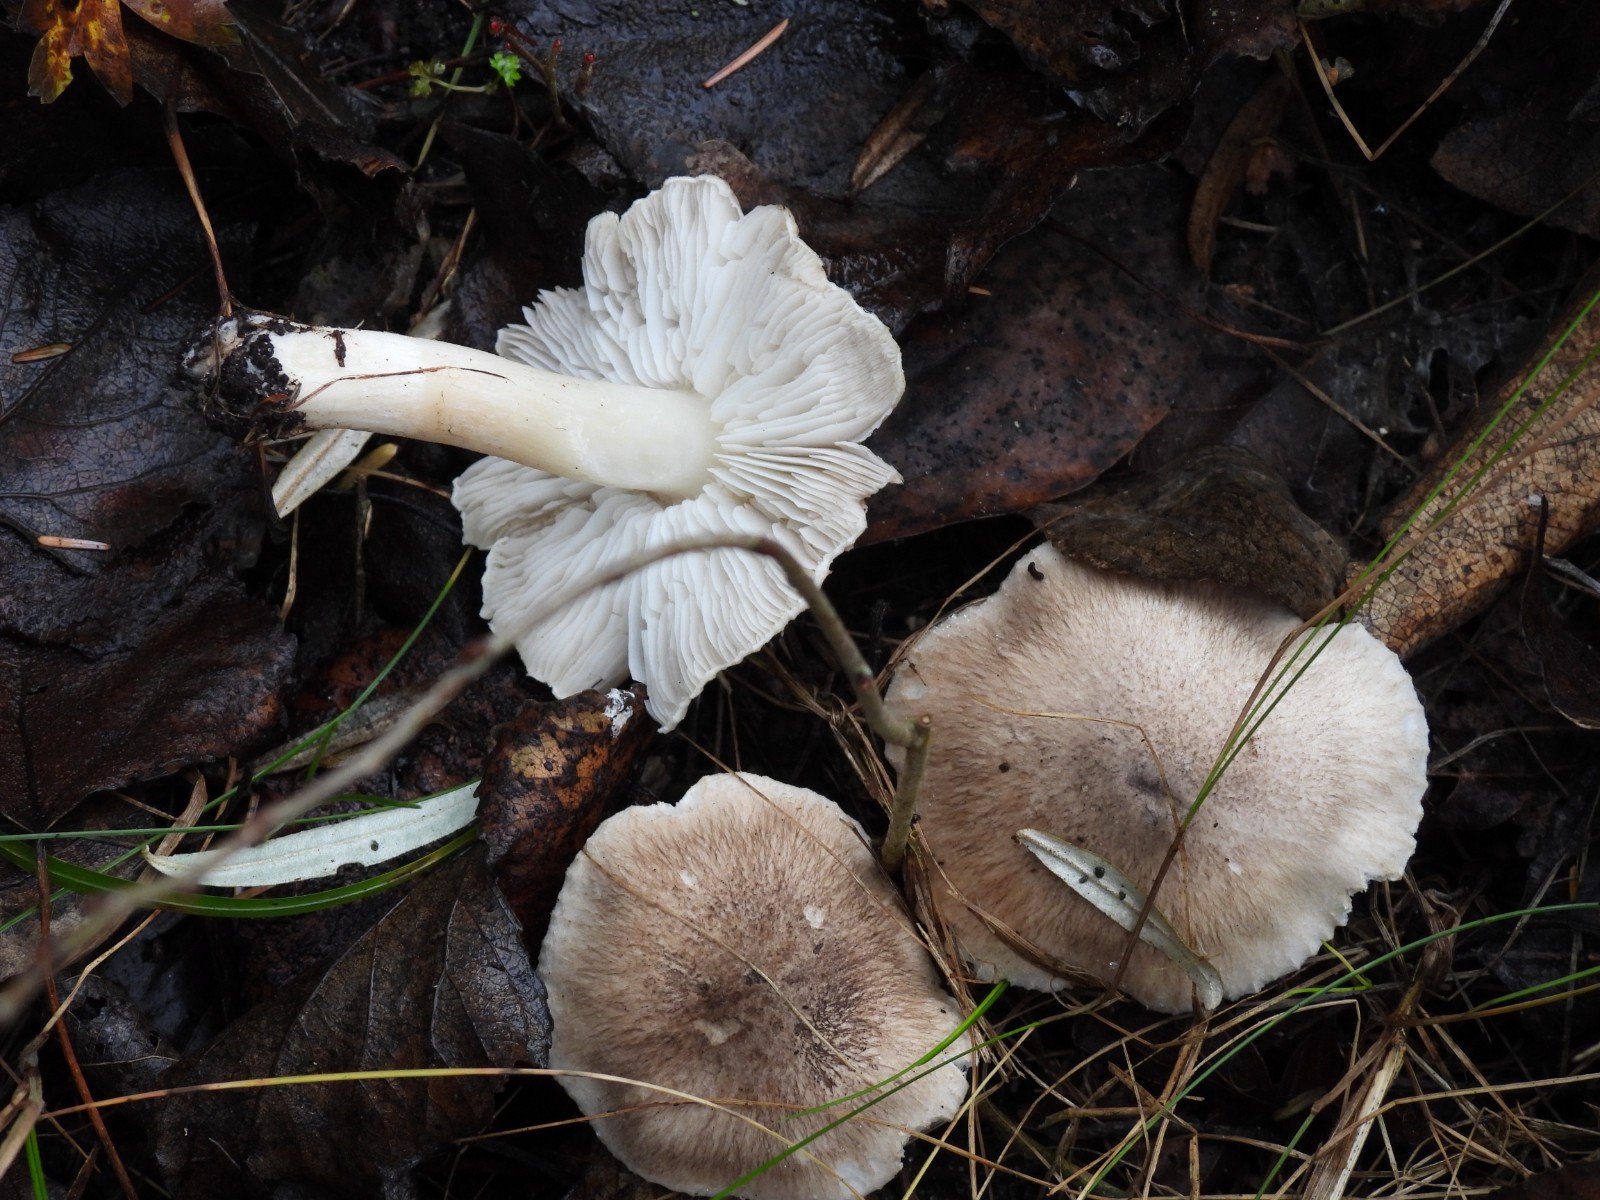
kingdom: Fungi
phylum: Basidiomycota
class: Agaricomycetes
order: Agaricales
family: Tricholomataceae
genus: Tricholoma
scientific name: Tricholoma argyraceum
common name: spids ridderhat
